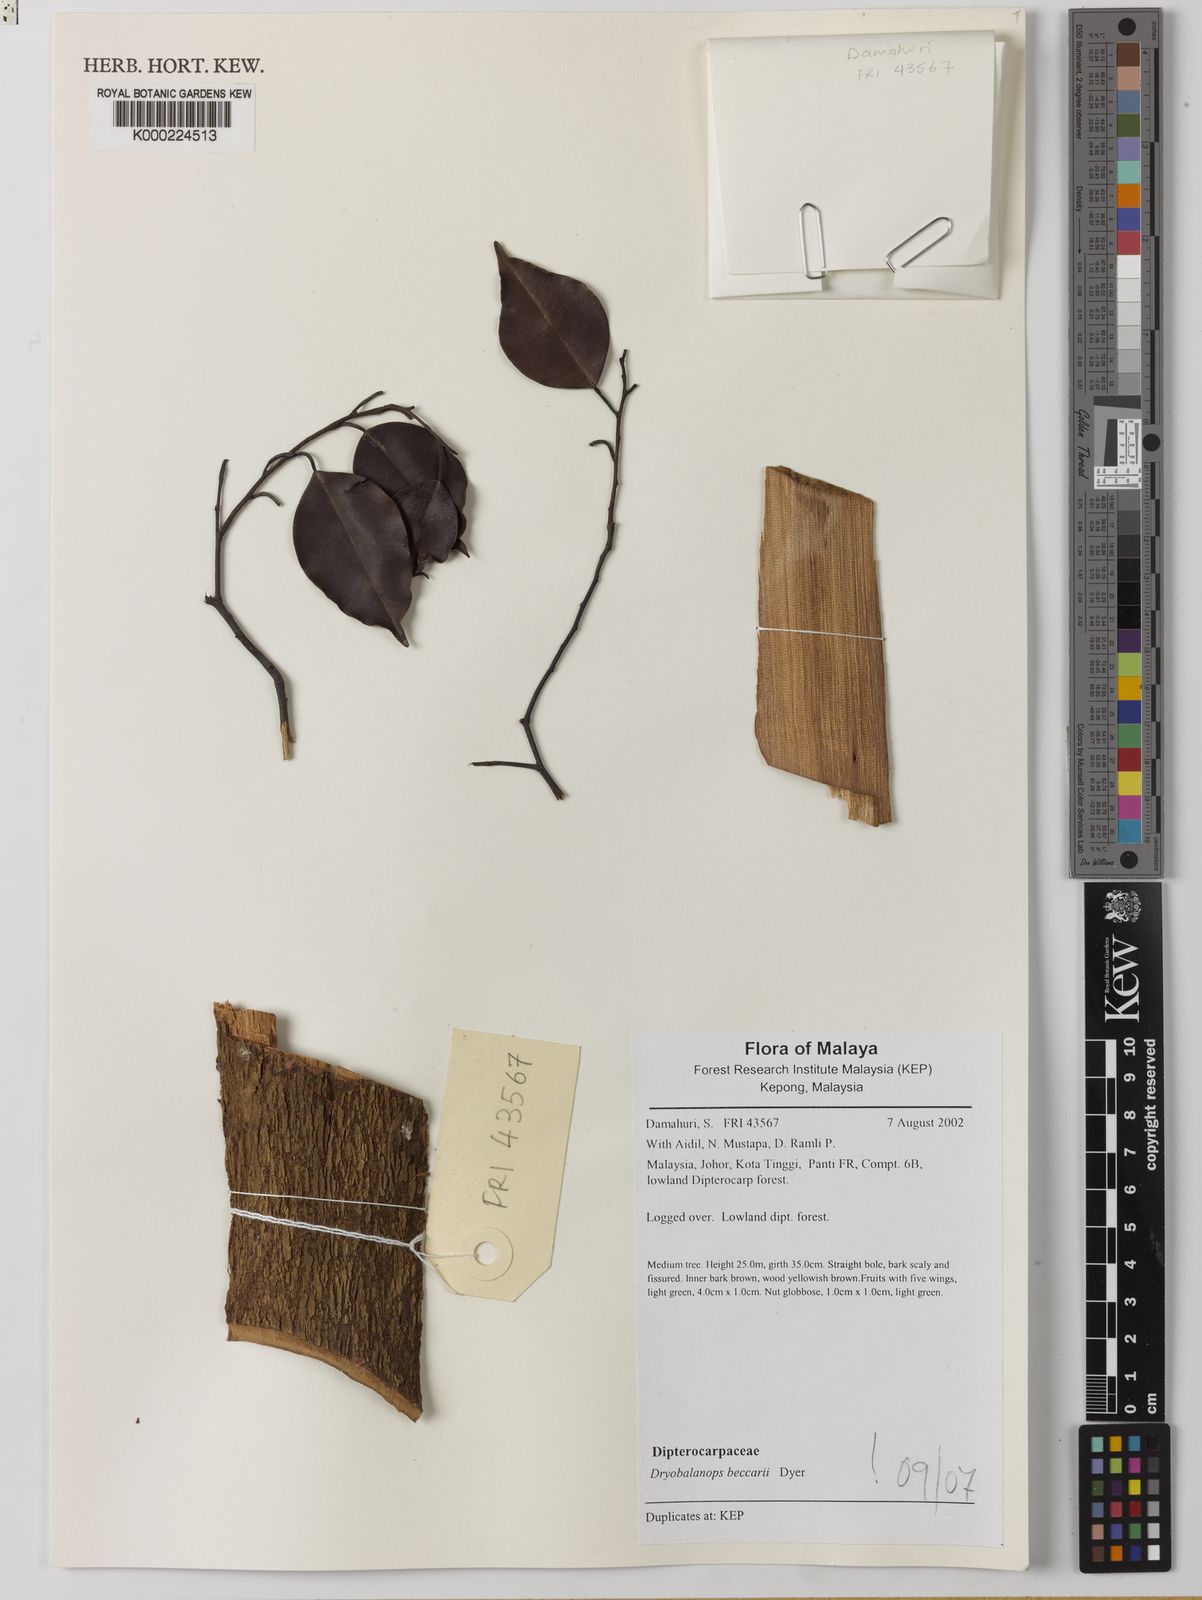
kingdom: Plantae
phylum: Tracheophyta
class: Magnoliopsida
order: Malvales
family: Dipterocarpaceae
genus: Dryobalanops
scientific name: Dryobalanops beccarii
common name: Sabah kapur
